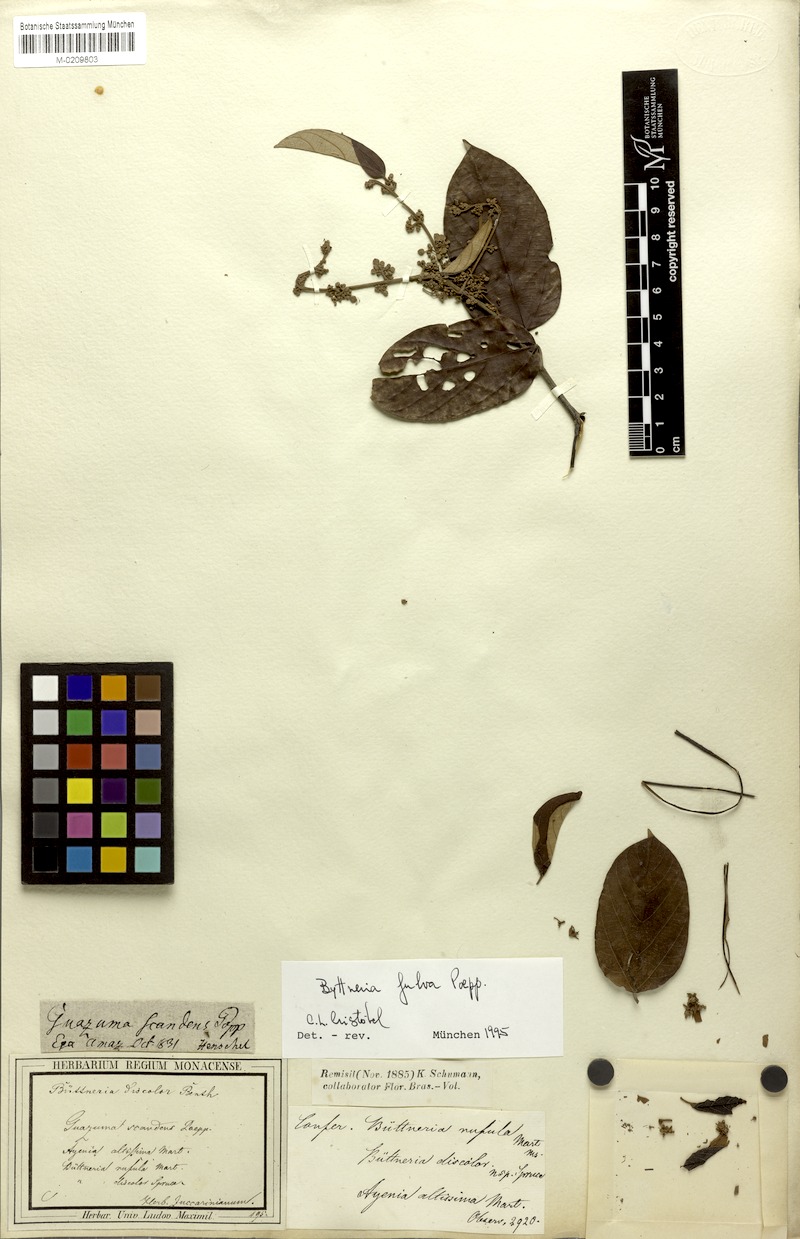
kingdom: Plantae
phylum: Tracheophyta
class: Magnoliopsida
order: Malvales
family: Malvaceae
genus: Byttneria
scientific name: Byttneria fulva
